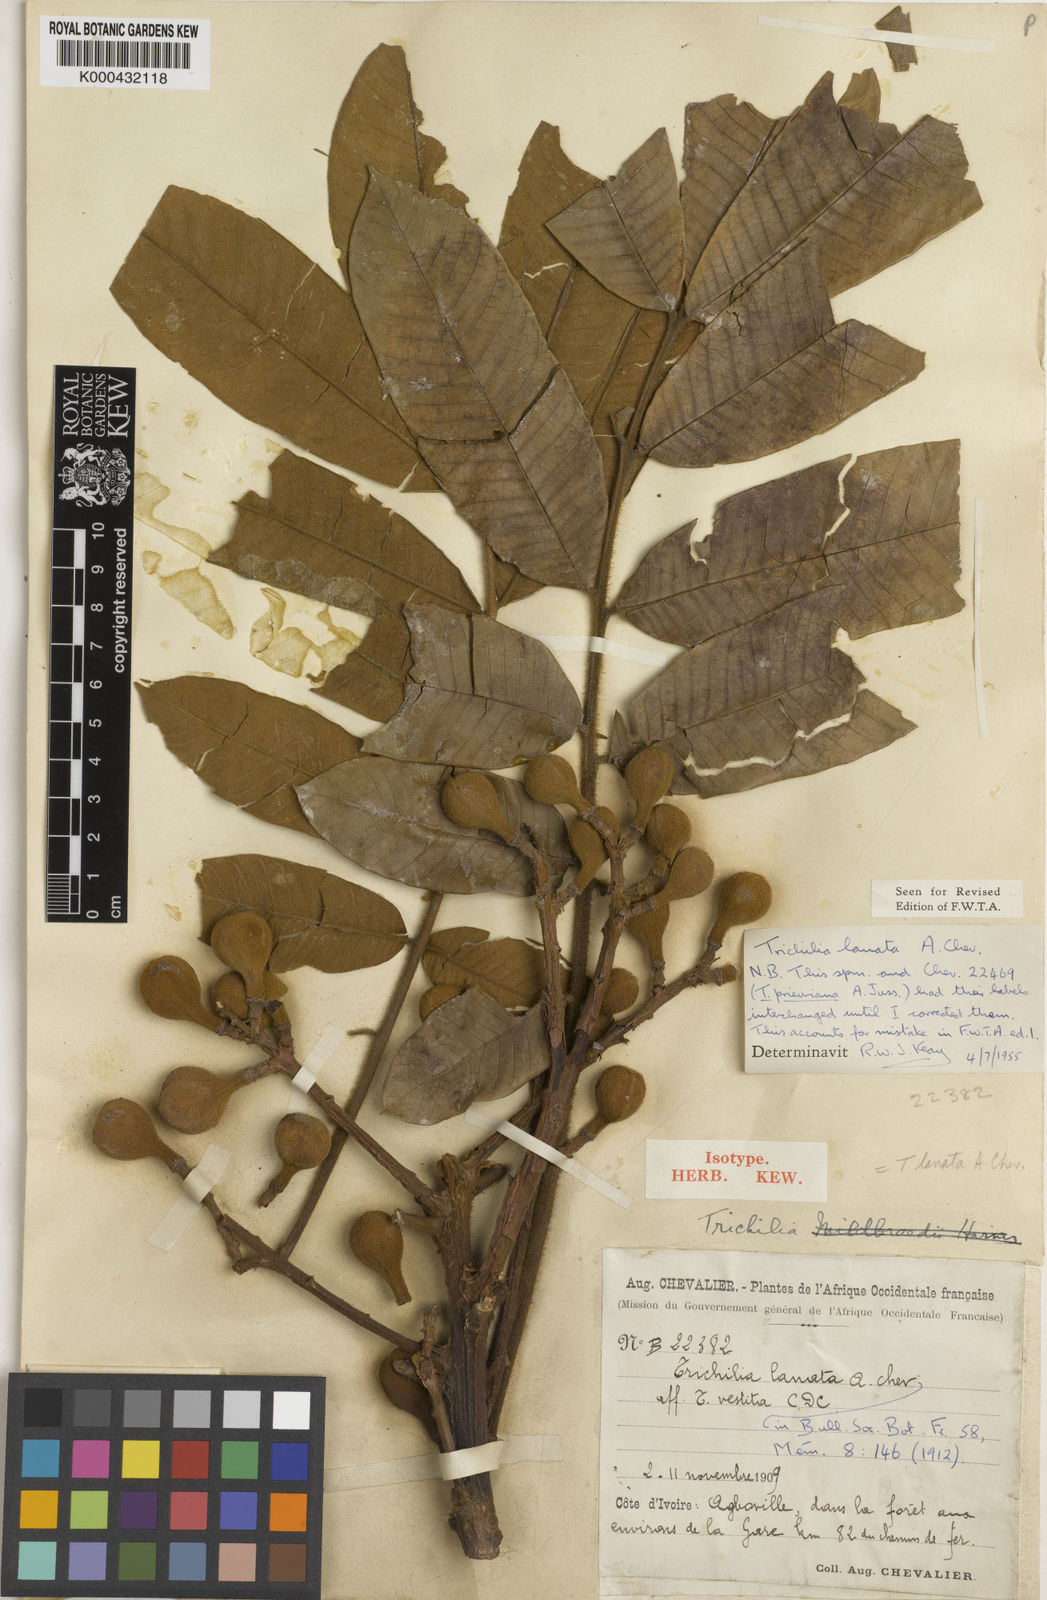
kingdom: Plantae
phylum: Tracheophyta
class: Magnoliopsida
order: Sapindales
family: Meliaceae
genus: Trichilia
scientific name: Trichilia tessmannii
